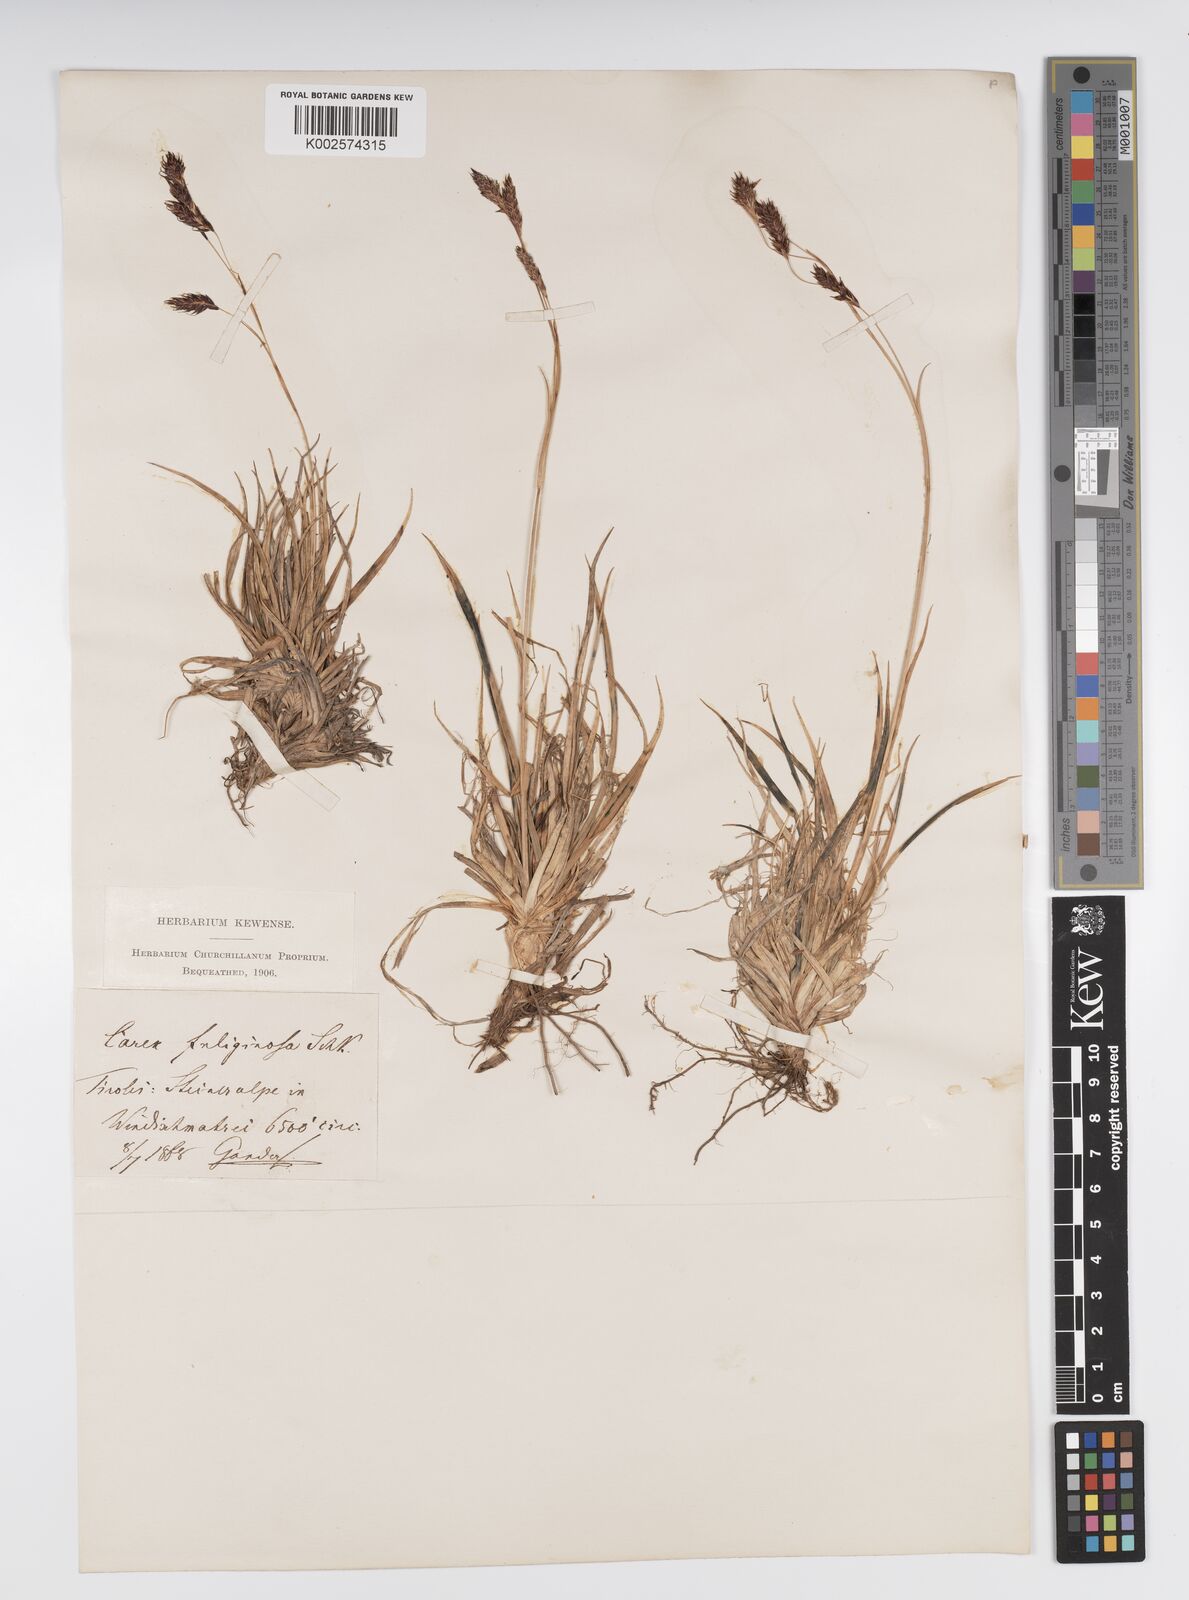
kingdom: Plantae
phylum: Tracheophyta
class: Liliopsida
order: Poales
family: Cyperaceae
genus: Carex
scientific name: Carex fuliginosa
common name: Few-flowered sedge
